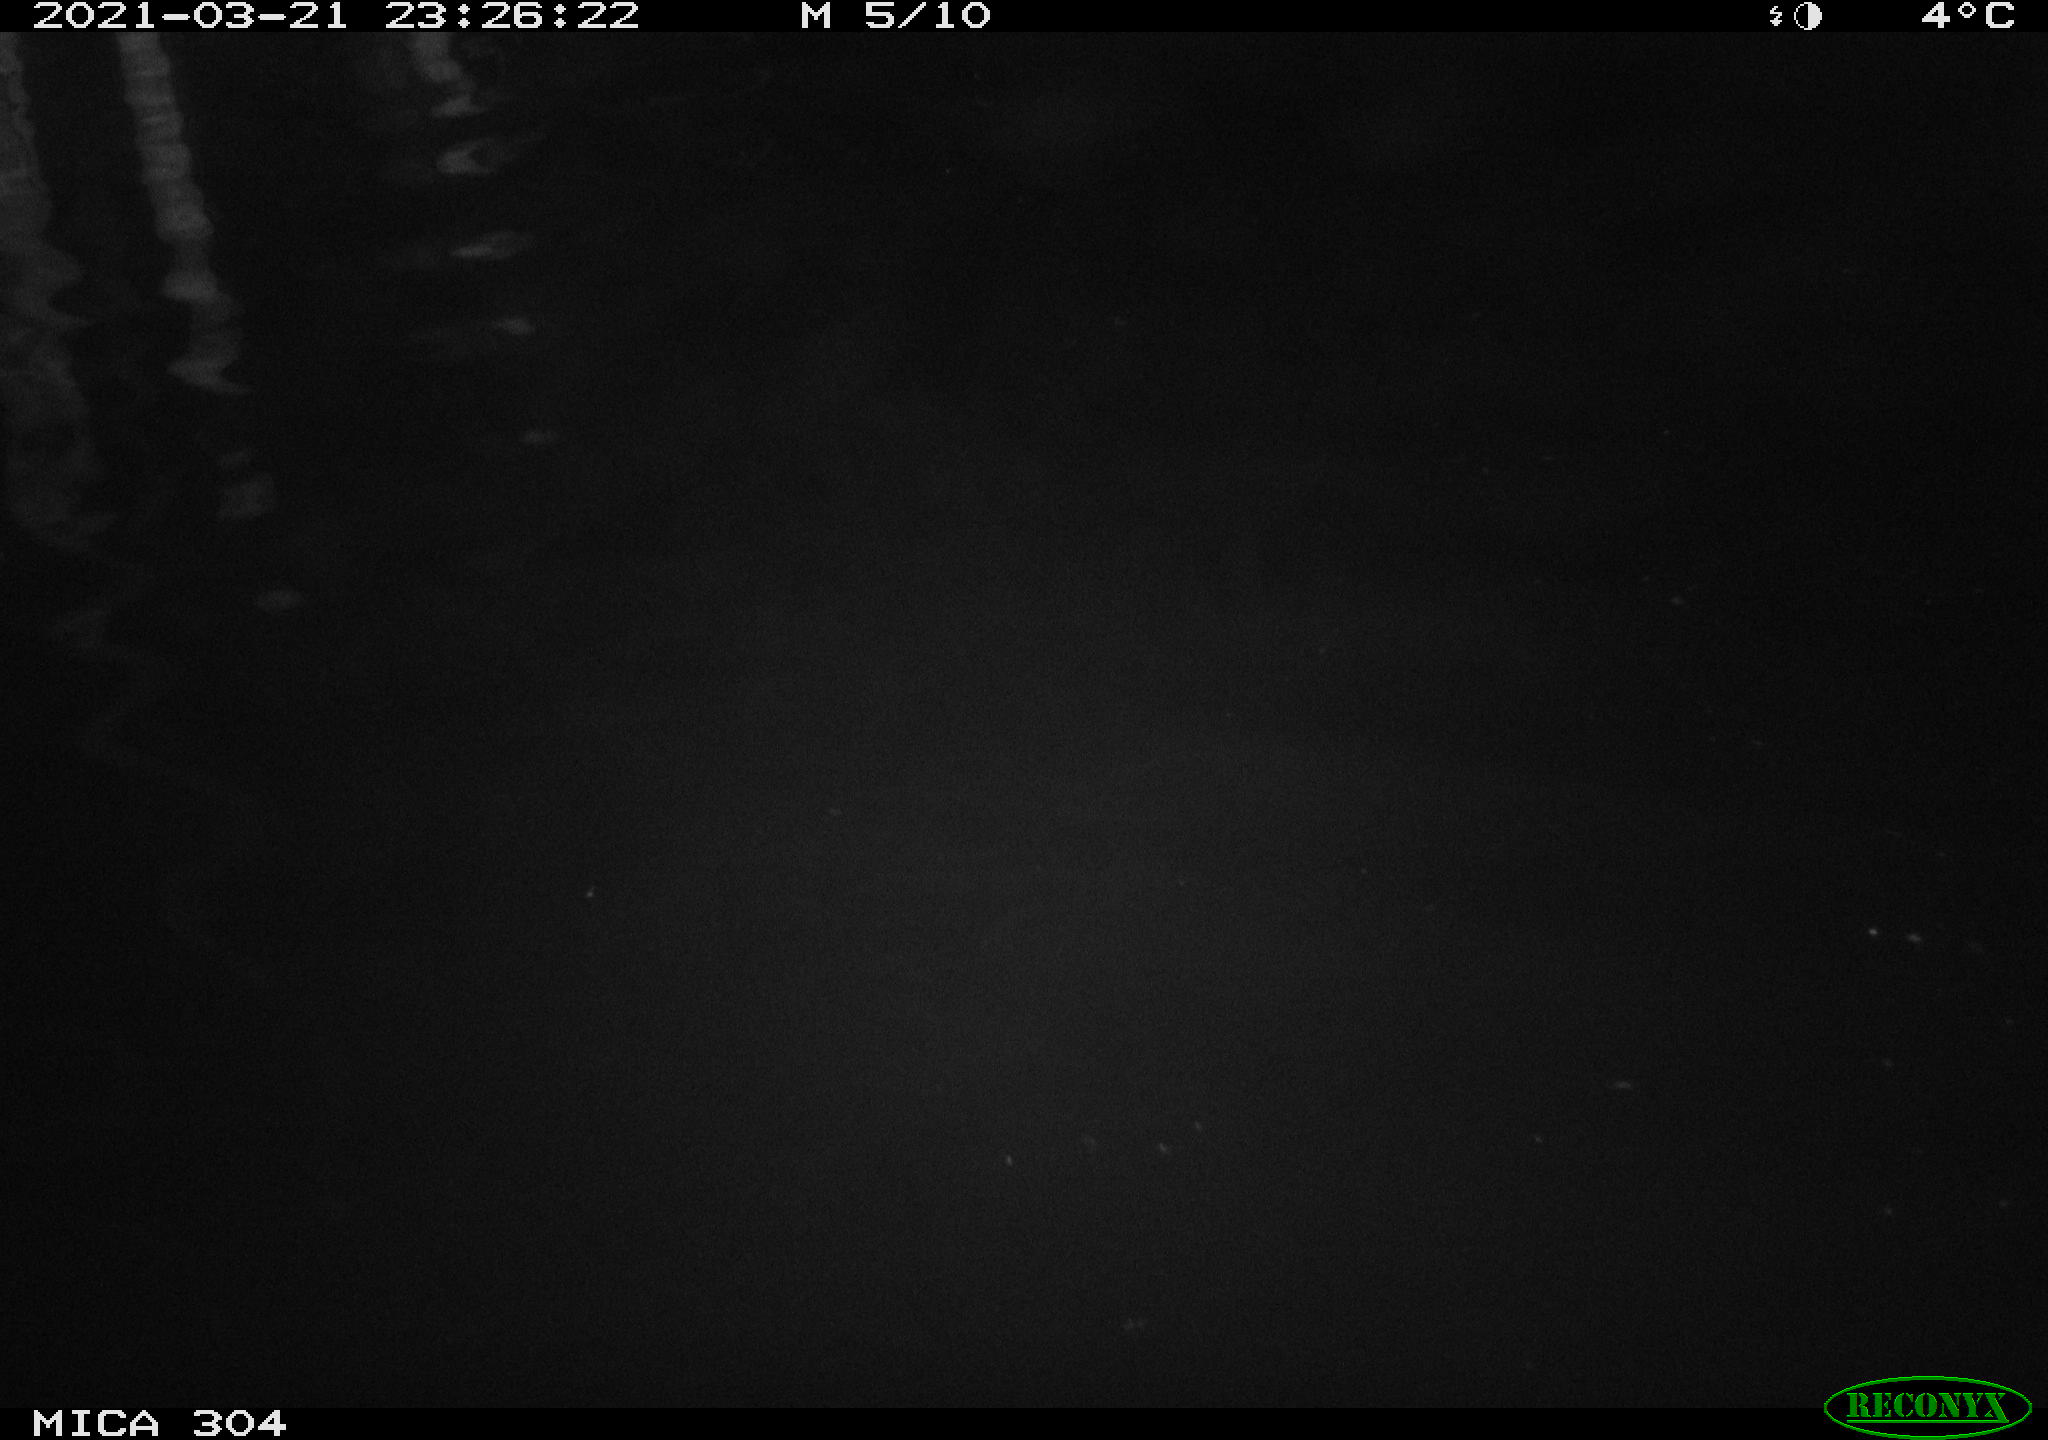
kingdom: Animalia
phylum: Chordata
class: Aves
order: Anseriformes
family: Anatidae
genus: Anas
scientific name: Anas platyrhynchos
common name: Mallard
